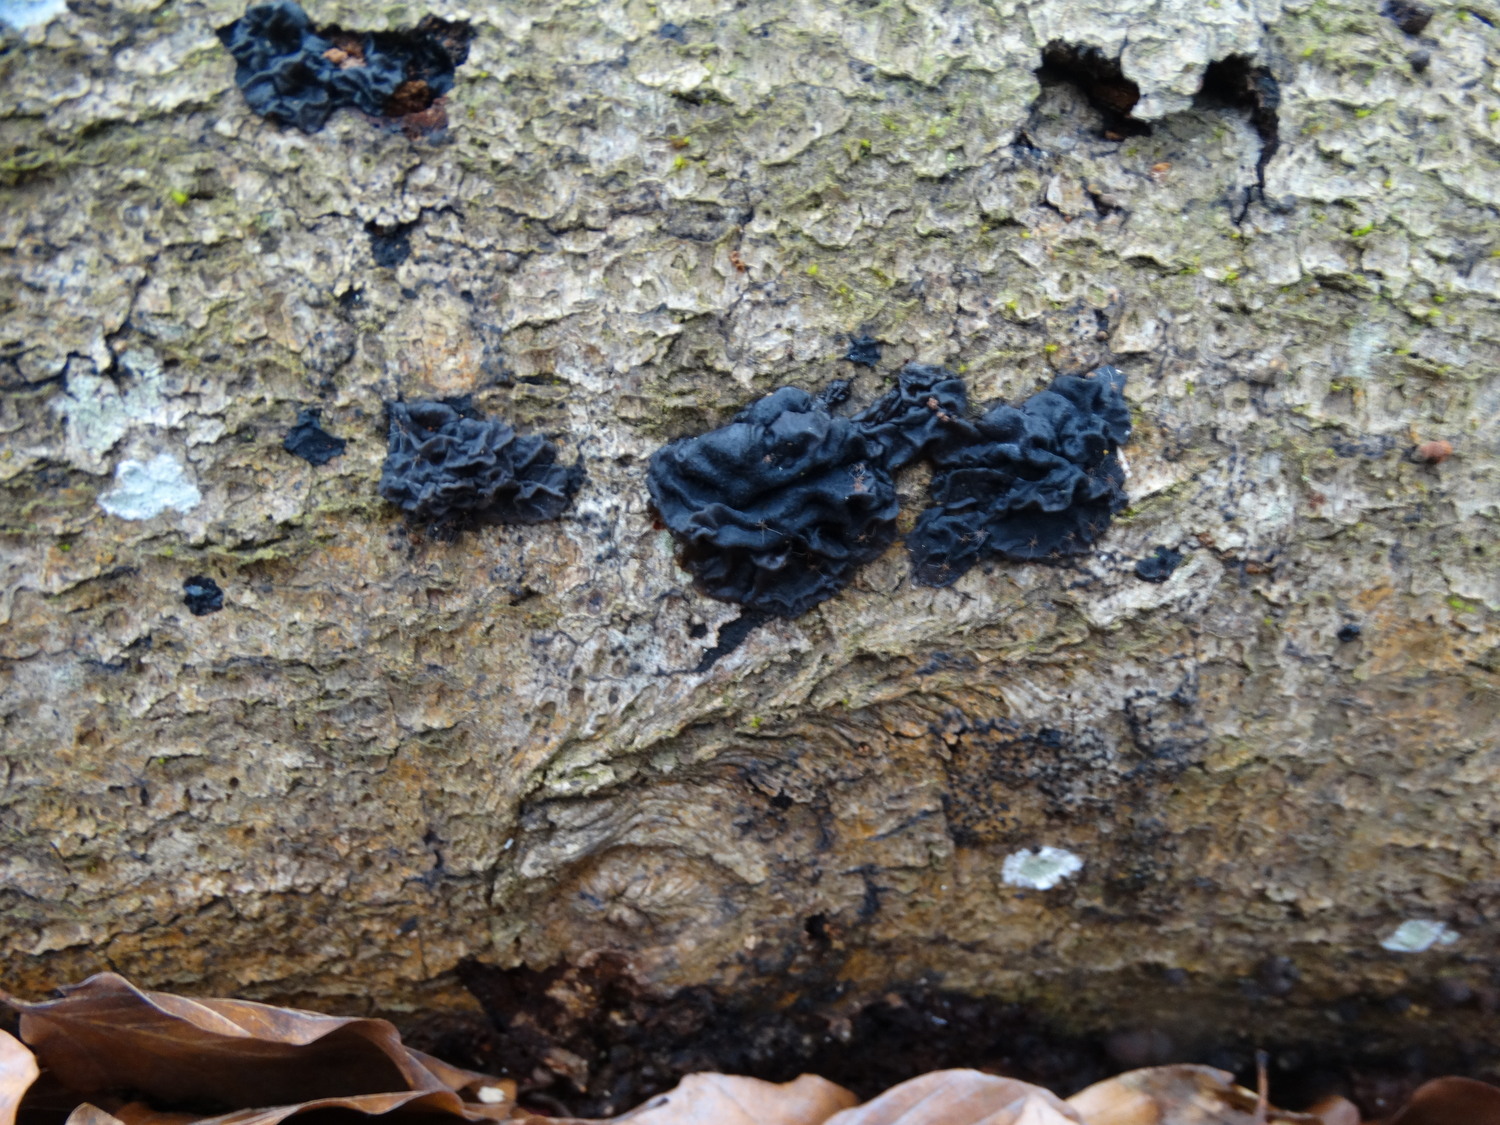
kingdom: Fungi
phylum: Basidiomycota
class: Agaricomycetes
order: Auriculariales
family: Auriculariaceae
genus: Exidia
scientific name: Exidia nigricans
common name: almindelig bævretop
